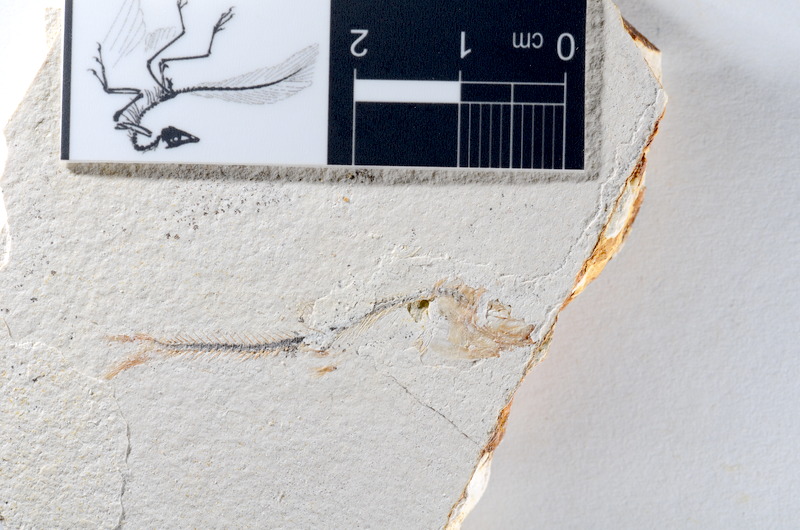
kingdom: Animalia
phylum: Chordata
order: Salmoniformes
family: Orthogonikleithridae
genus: Orthogonikleithrus
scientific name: Orthogonikleithrus hoelli
